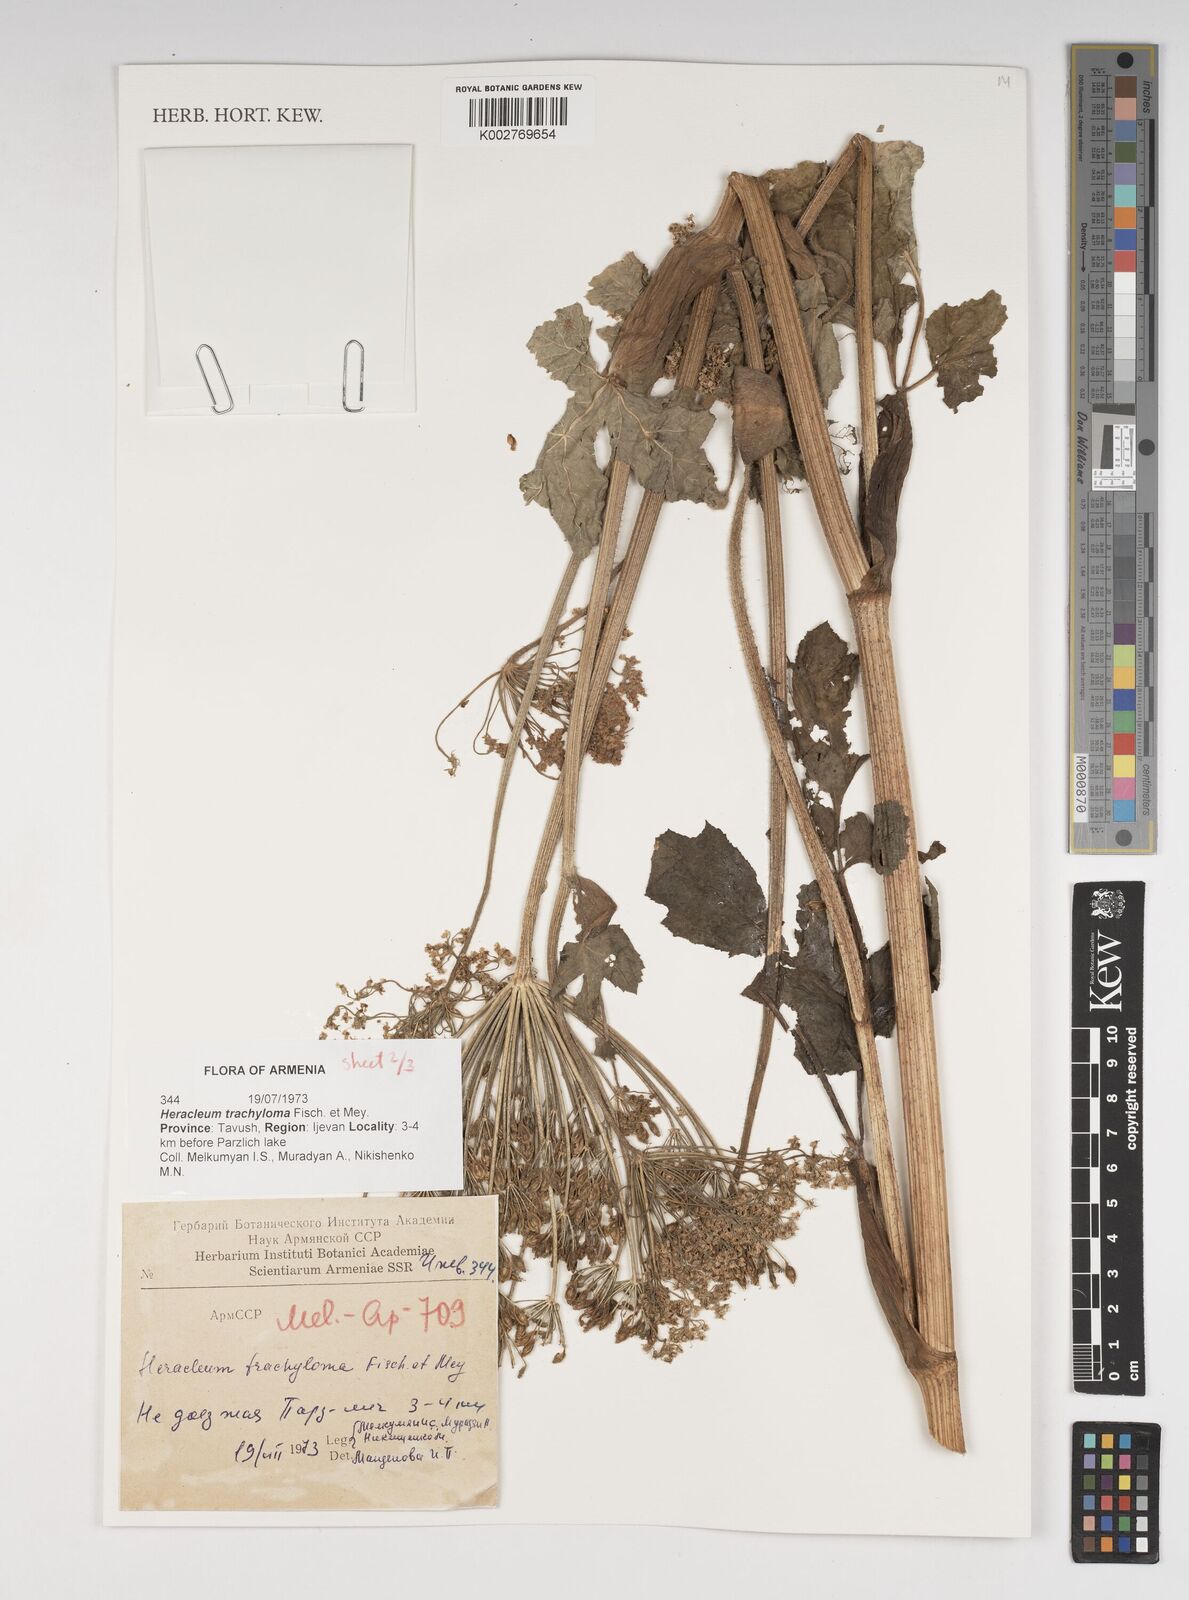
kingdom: Plantae
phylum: Tracheophyta
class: Magnoliopsida
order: Apiales
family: Apiaceae
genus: Heracleum
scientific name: Heracleum trachyloma
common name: Downy cow-parsnip
